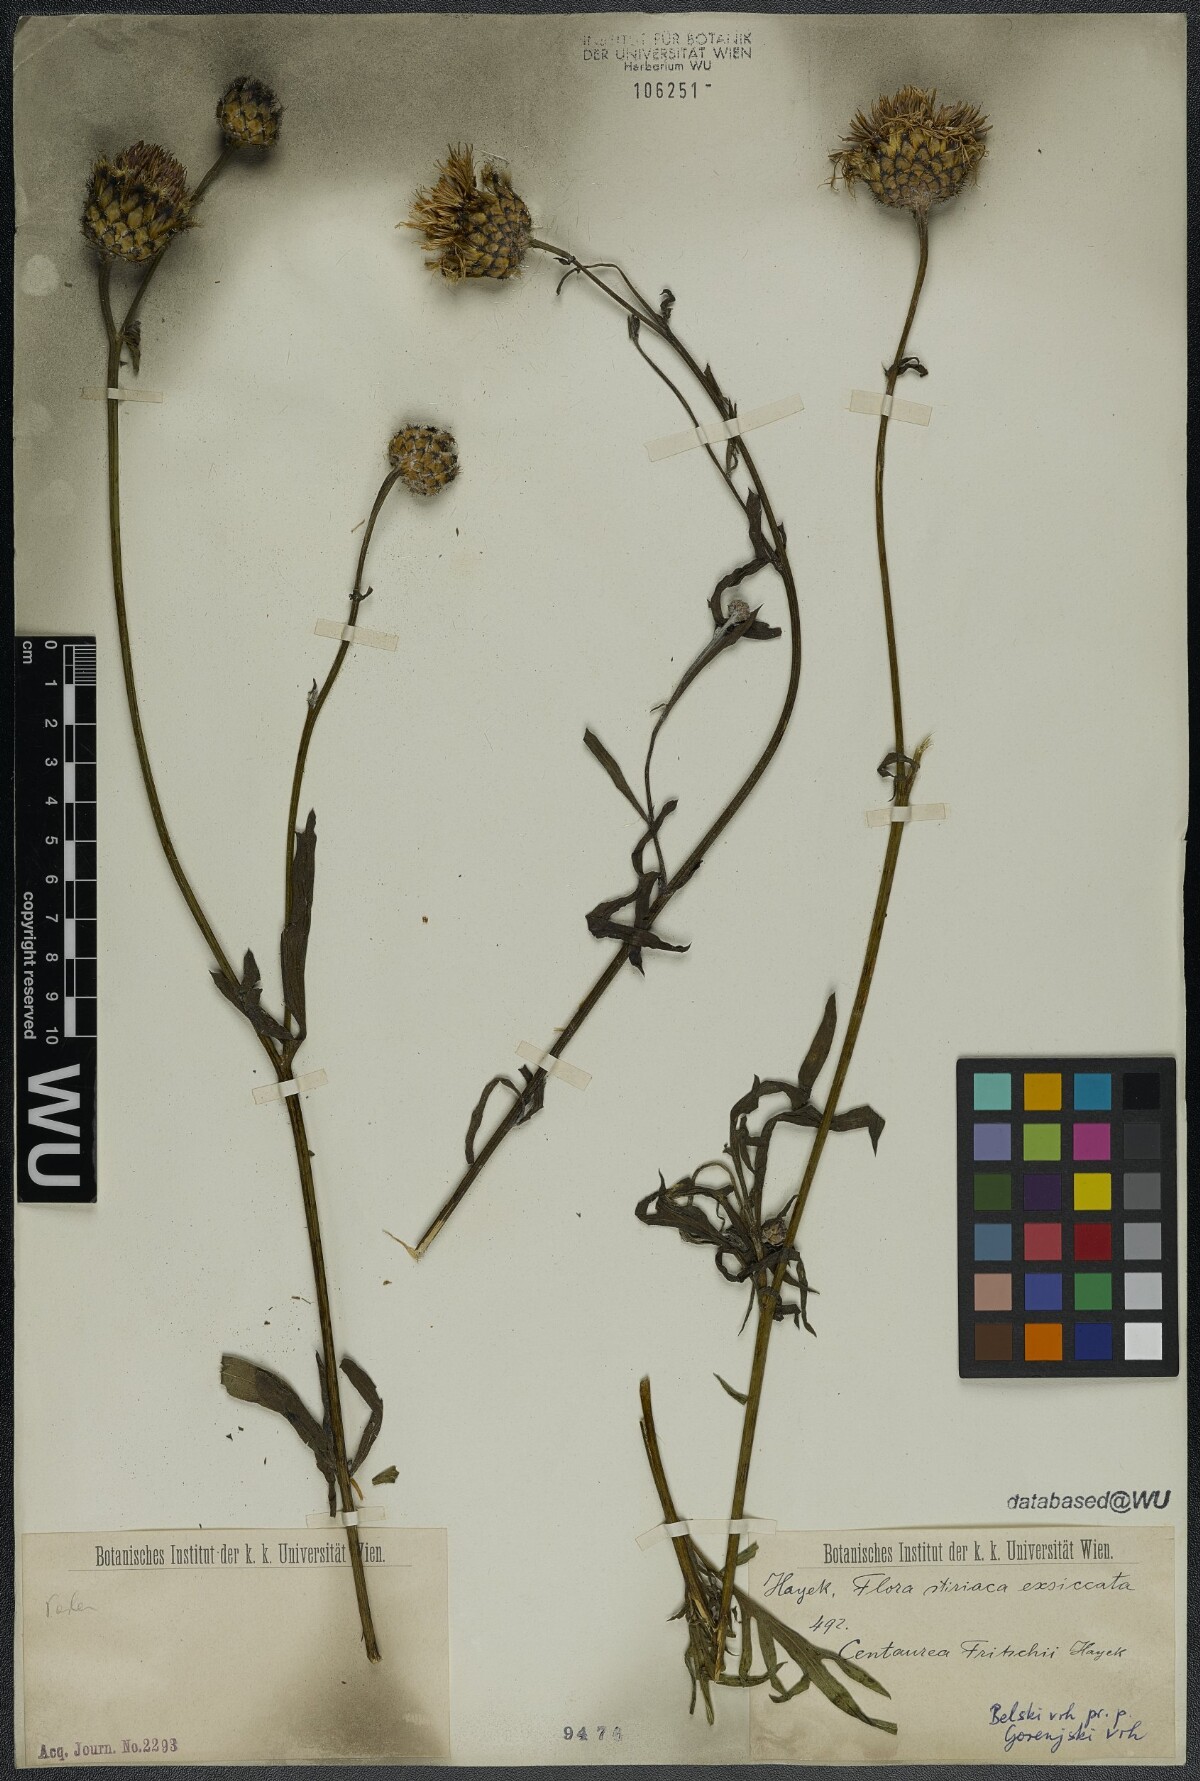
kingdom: Plantae
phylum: Tracheophyta
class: Magnoliopsida
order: Asterales
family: Asteraceae
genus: Centaurea
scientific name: Centaurea scabiosa
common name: Greater knapweed
